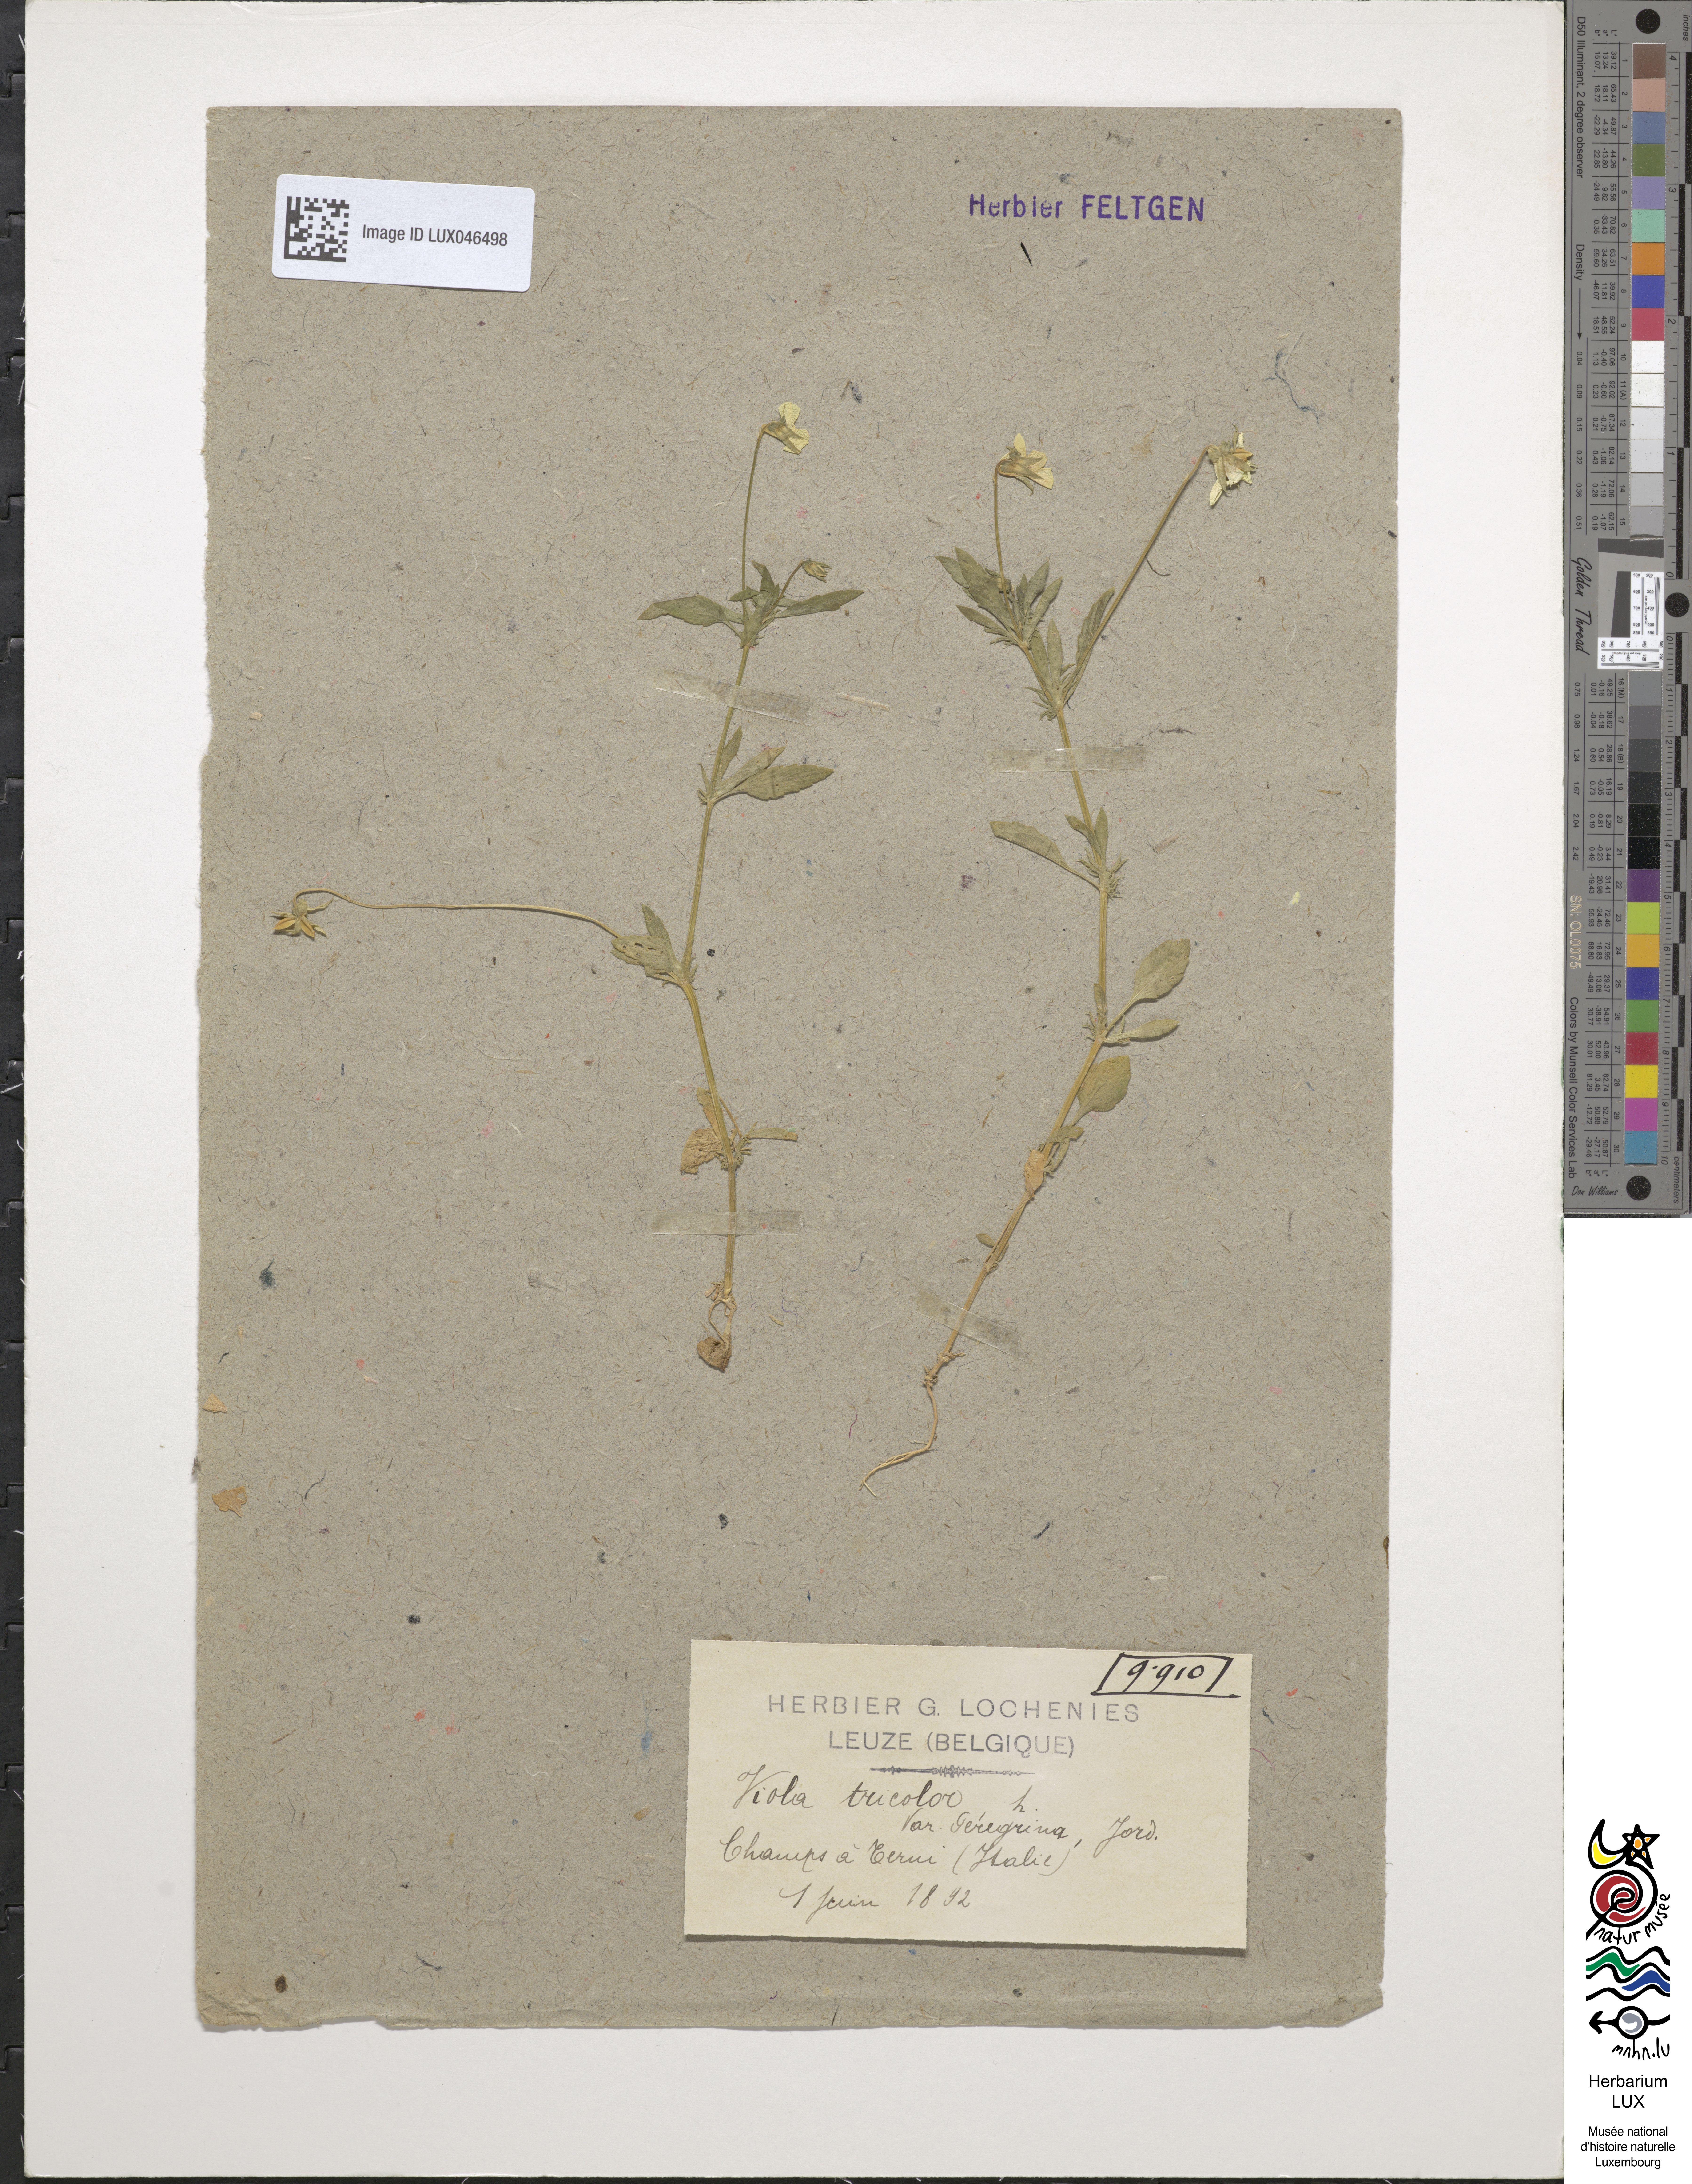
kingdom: Plantae
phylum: Tracheophyta
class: Magnoliopsida
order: Malpighiales
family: Violaceae
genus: Viola
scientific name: Viola tricolor
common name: Pansy
